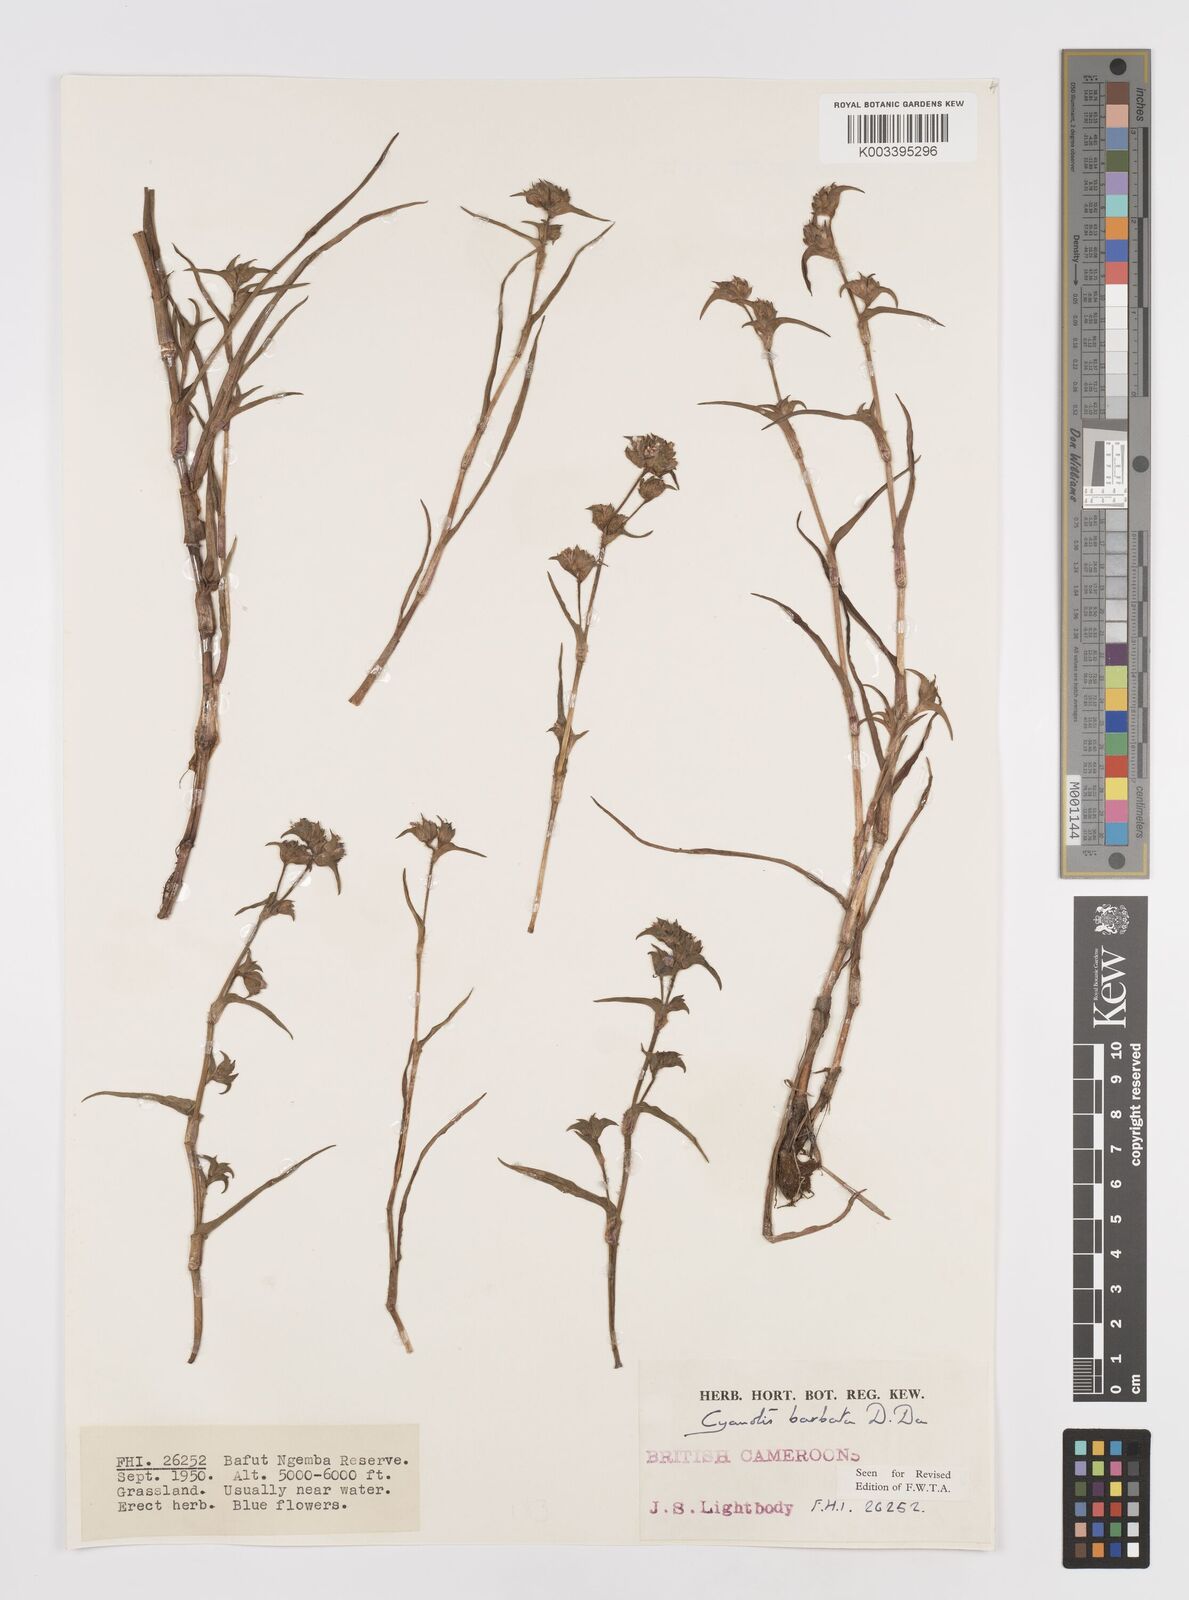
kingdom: Plantae
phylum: Tracheophyta
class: Liliopsida
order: Commelinales
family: Commelinaceae
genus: Cyanotis
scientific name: Cyanotis vaga
